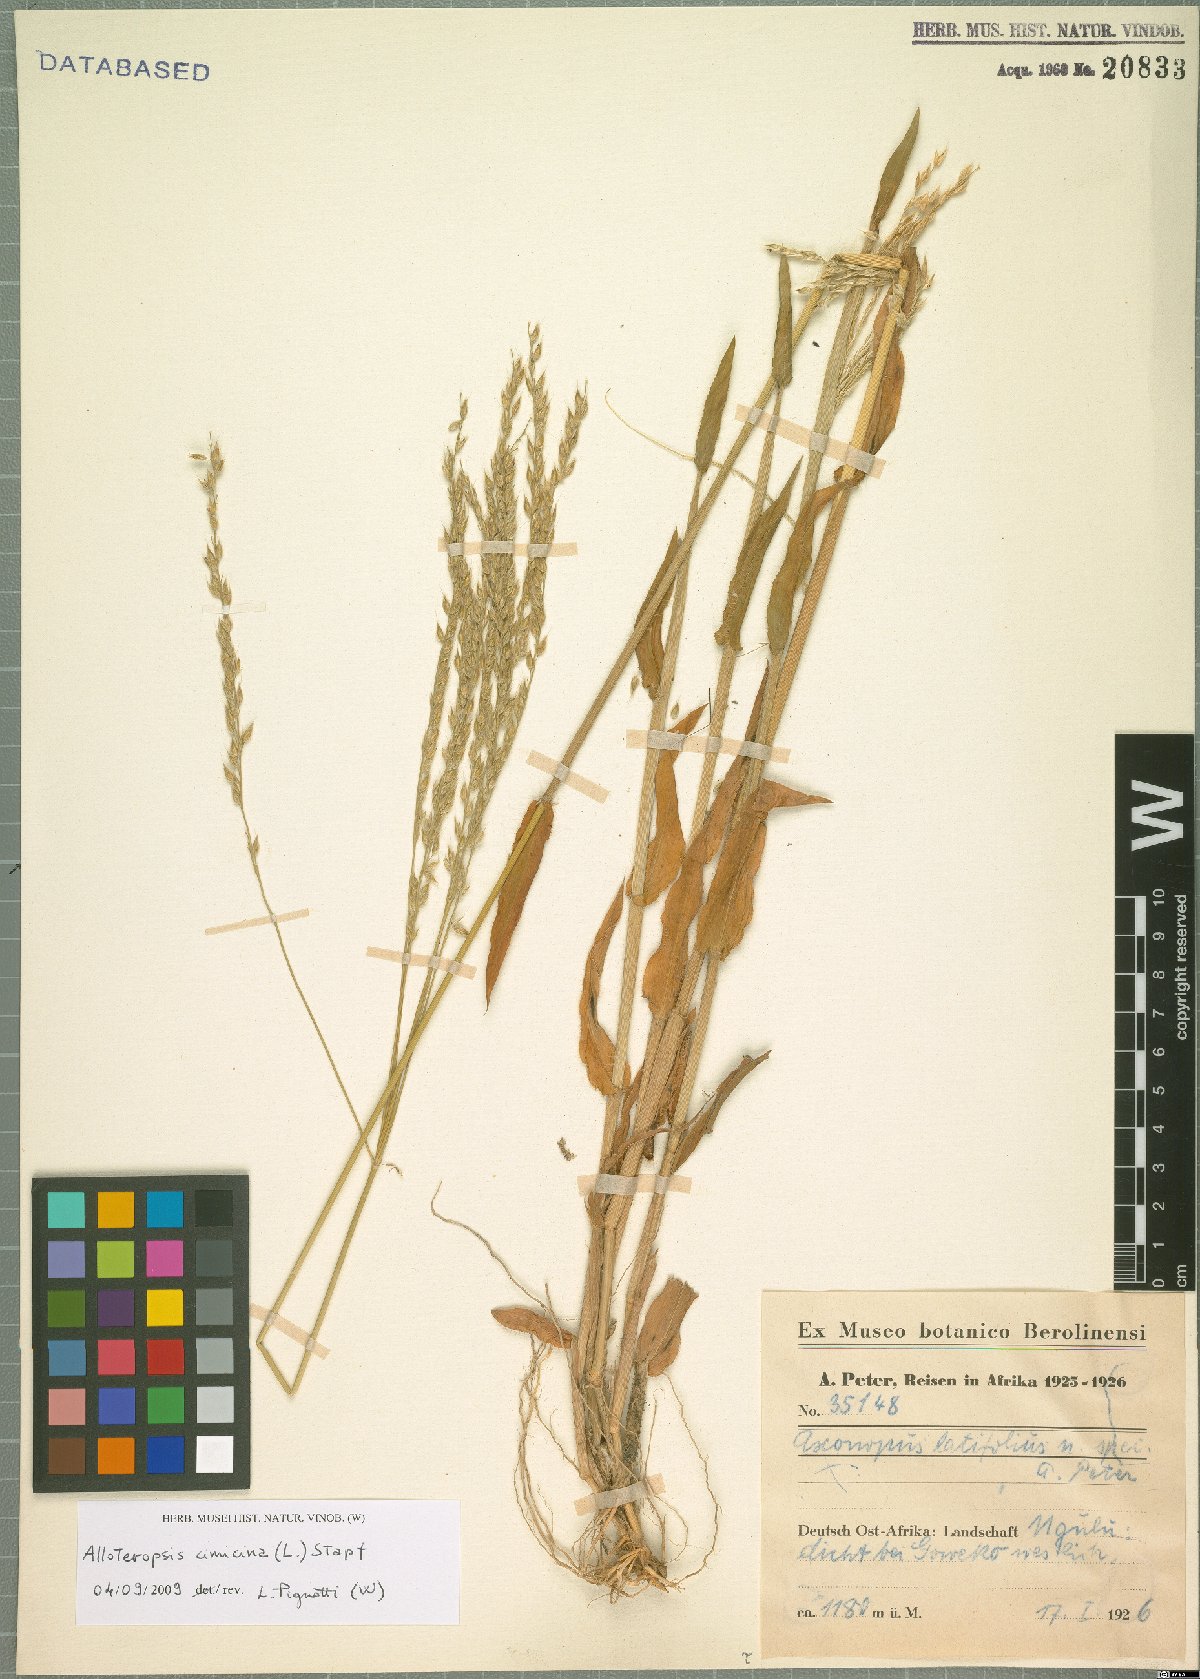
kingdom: Plantae
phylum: Tracheophyta
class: Liliopsida
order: Poales
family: Poaceae
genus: Alloteropsis
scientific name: Alloteropsis cimicina
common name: Summergrass
